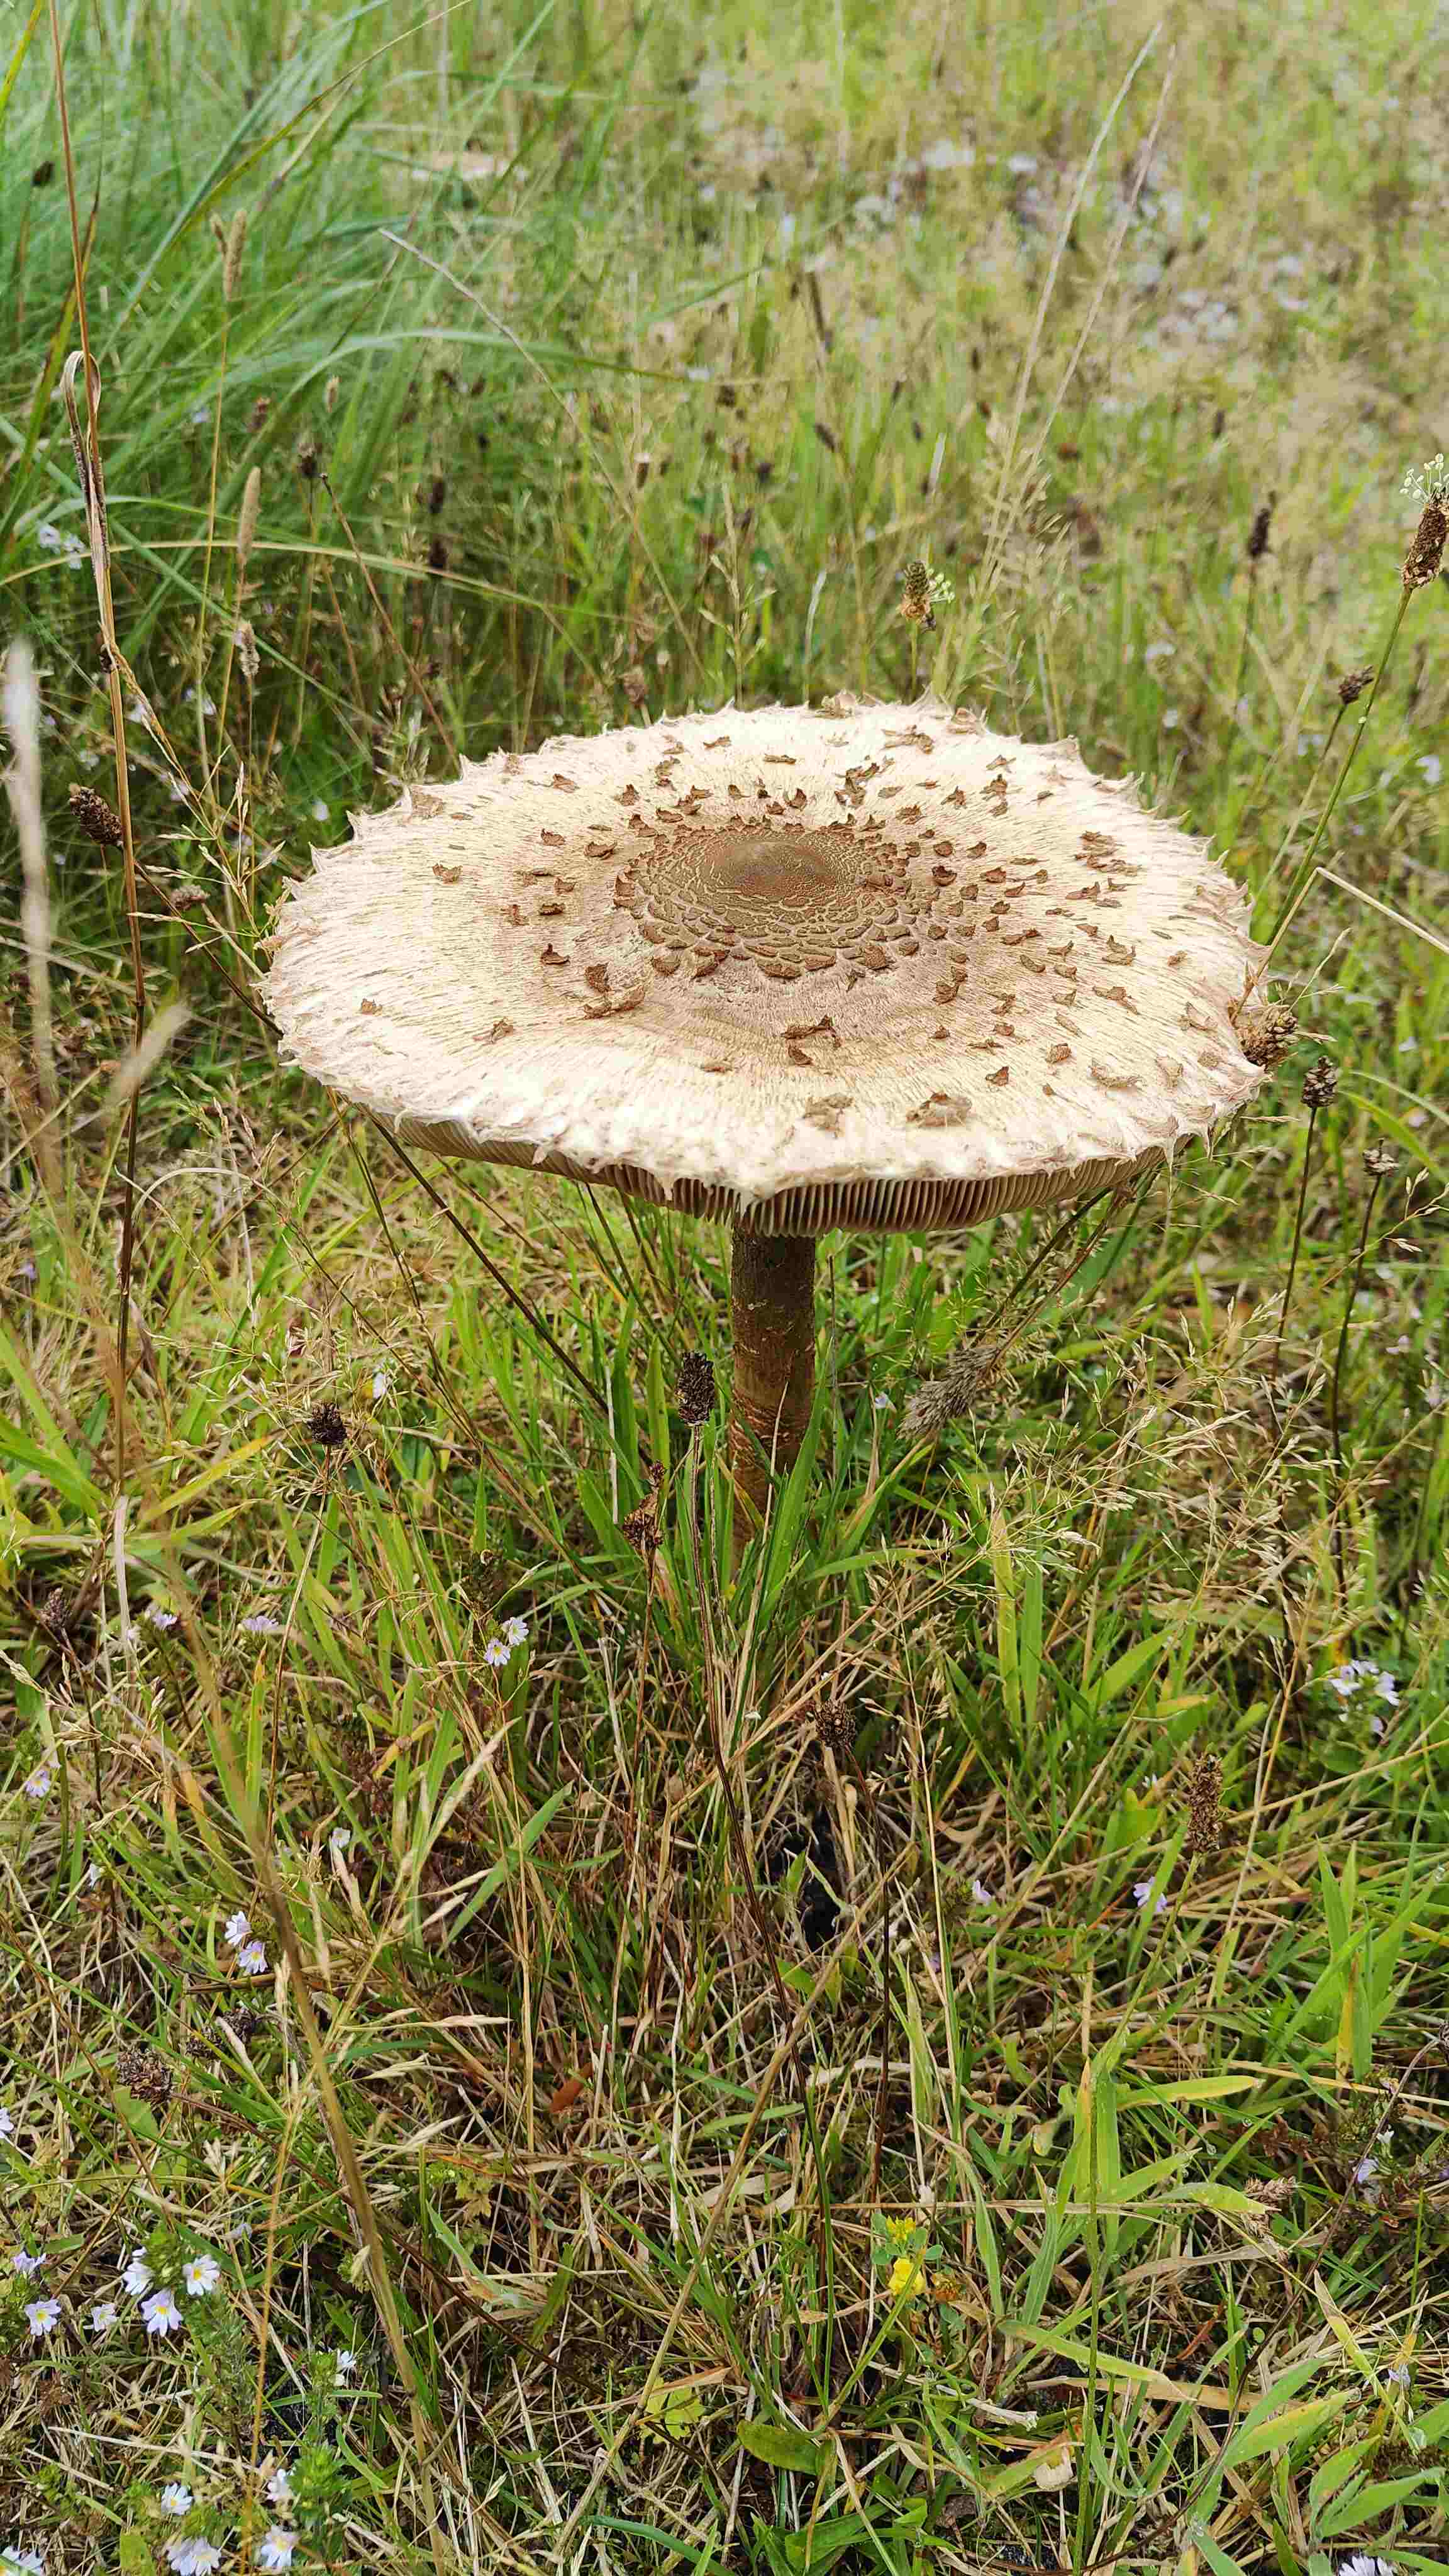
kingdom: Fungi
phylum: Basidiomycota
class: Agaricomycetes
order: Agaricales
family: Agaricaceae
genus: Macrolepiota
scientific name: Macrolepiota procera
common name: stor kæmpeparasolhat
